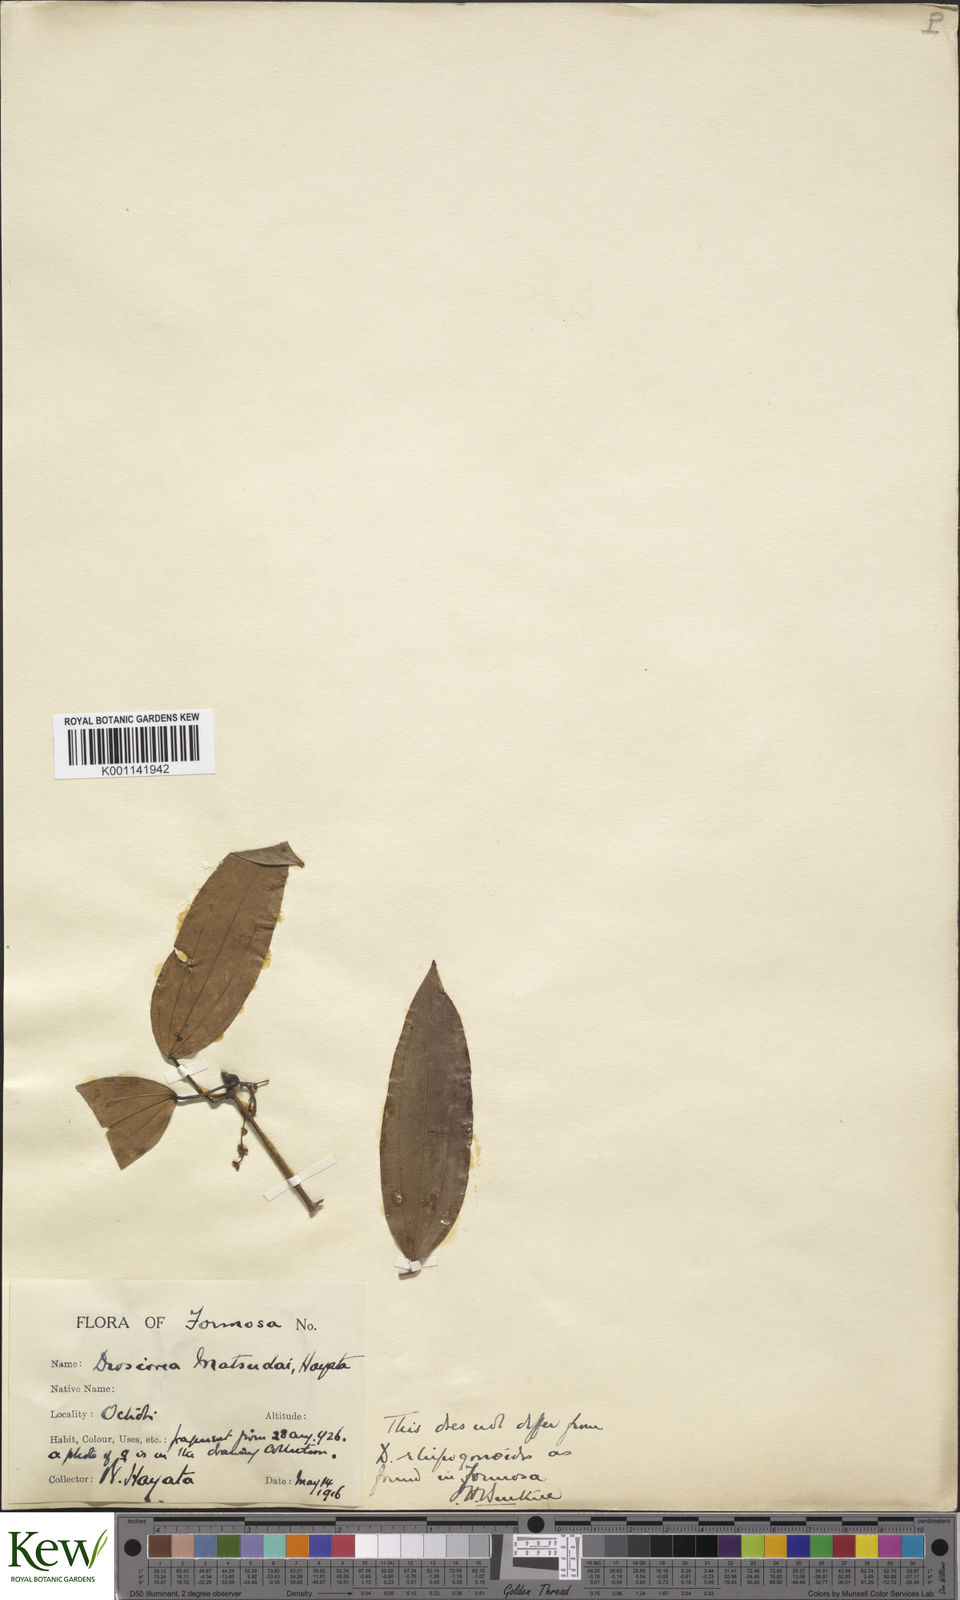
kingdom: Plantae
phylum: Tracheophyta
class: Liliopsida
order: Dioscoreales
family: Dioscoreaceae
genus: Dioscorea
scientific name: Dioscorea cirrhosa
